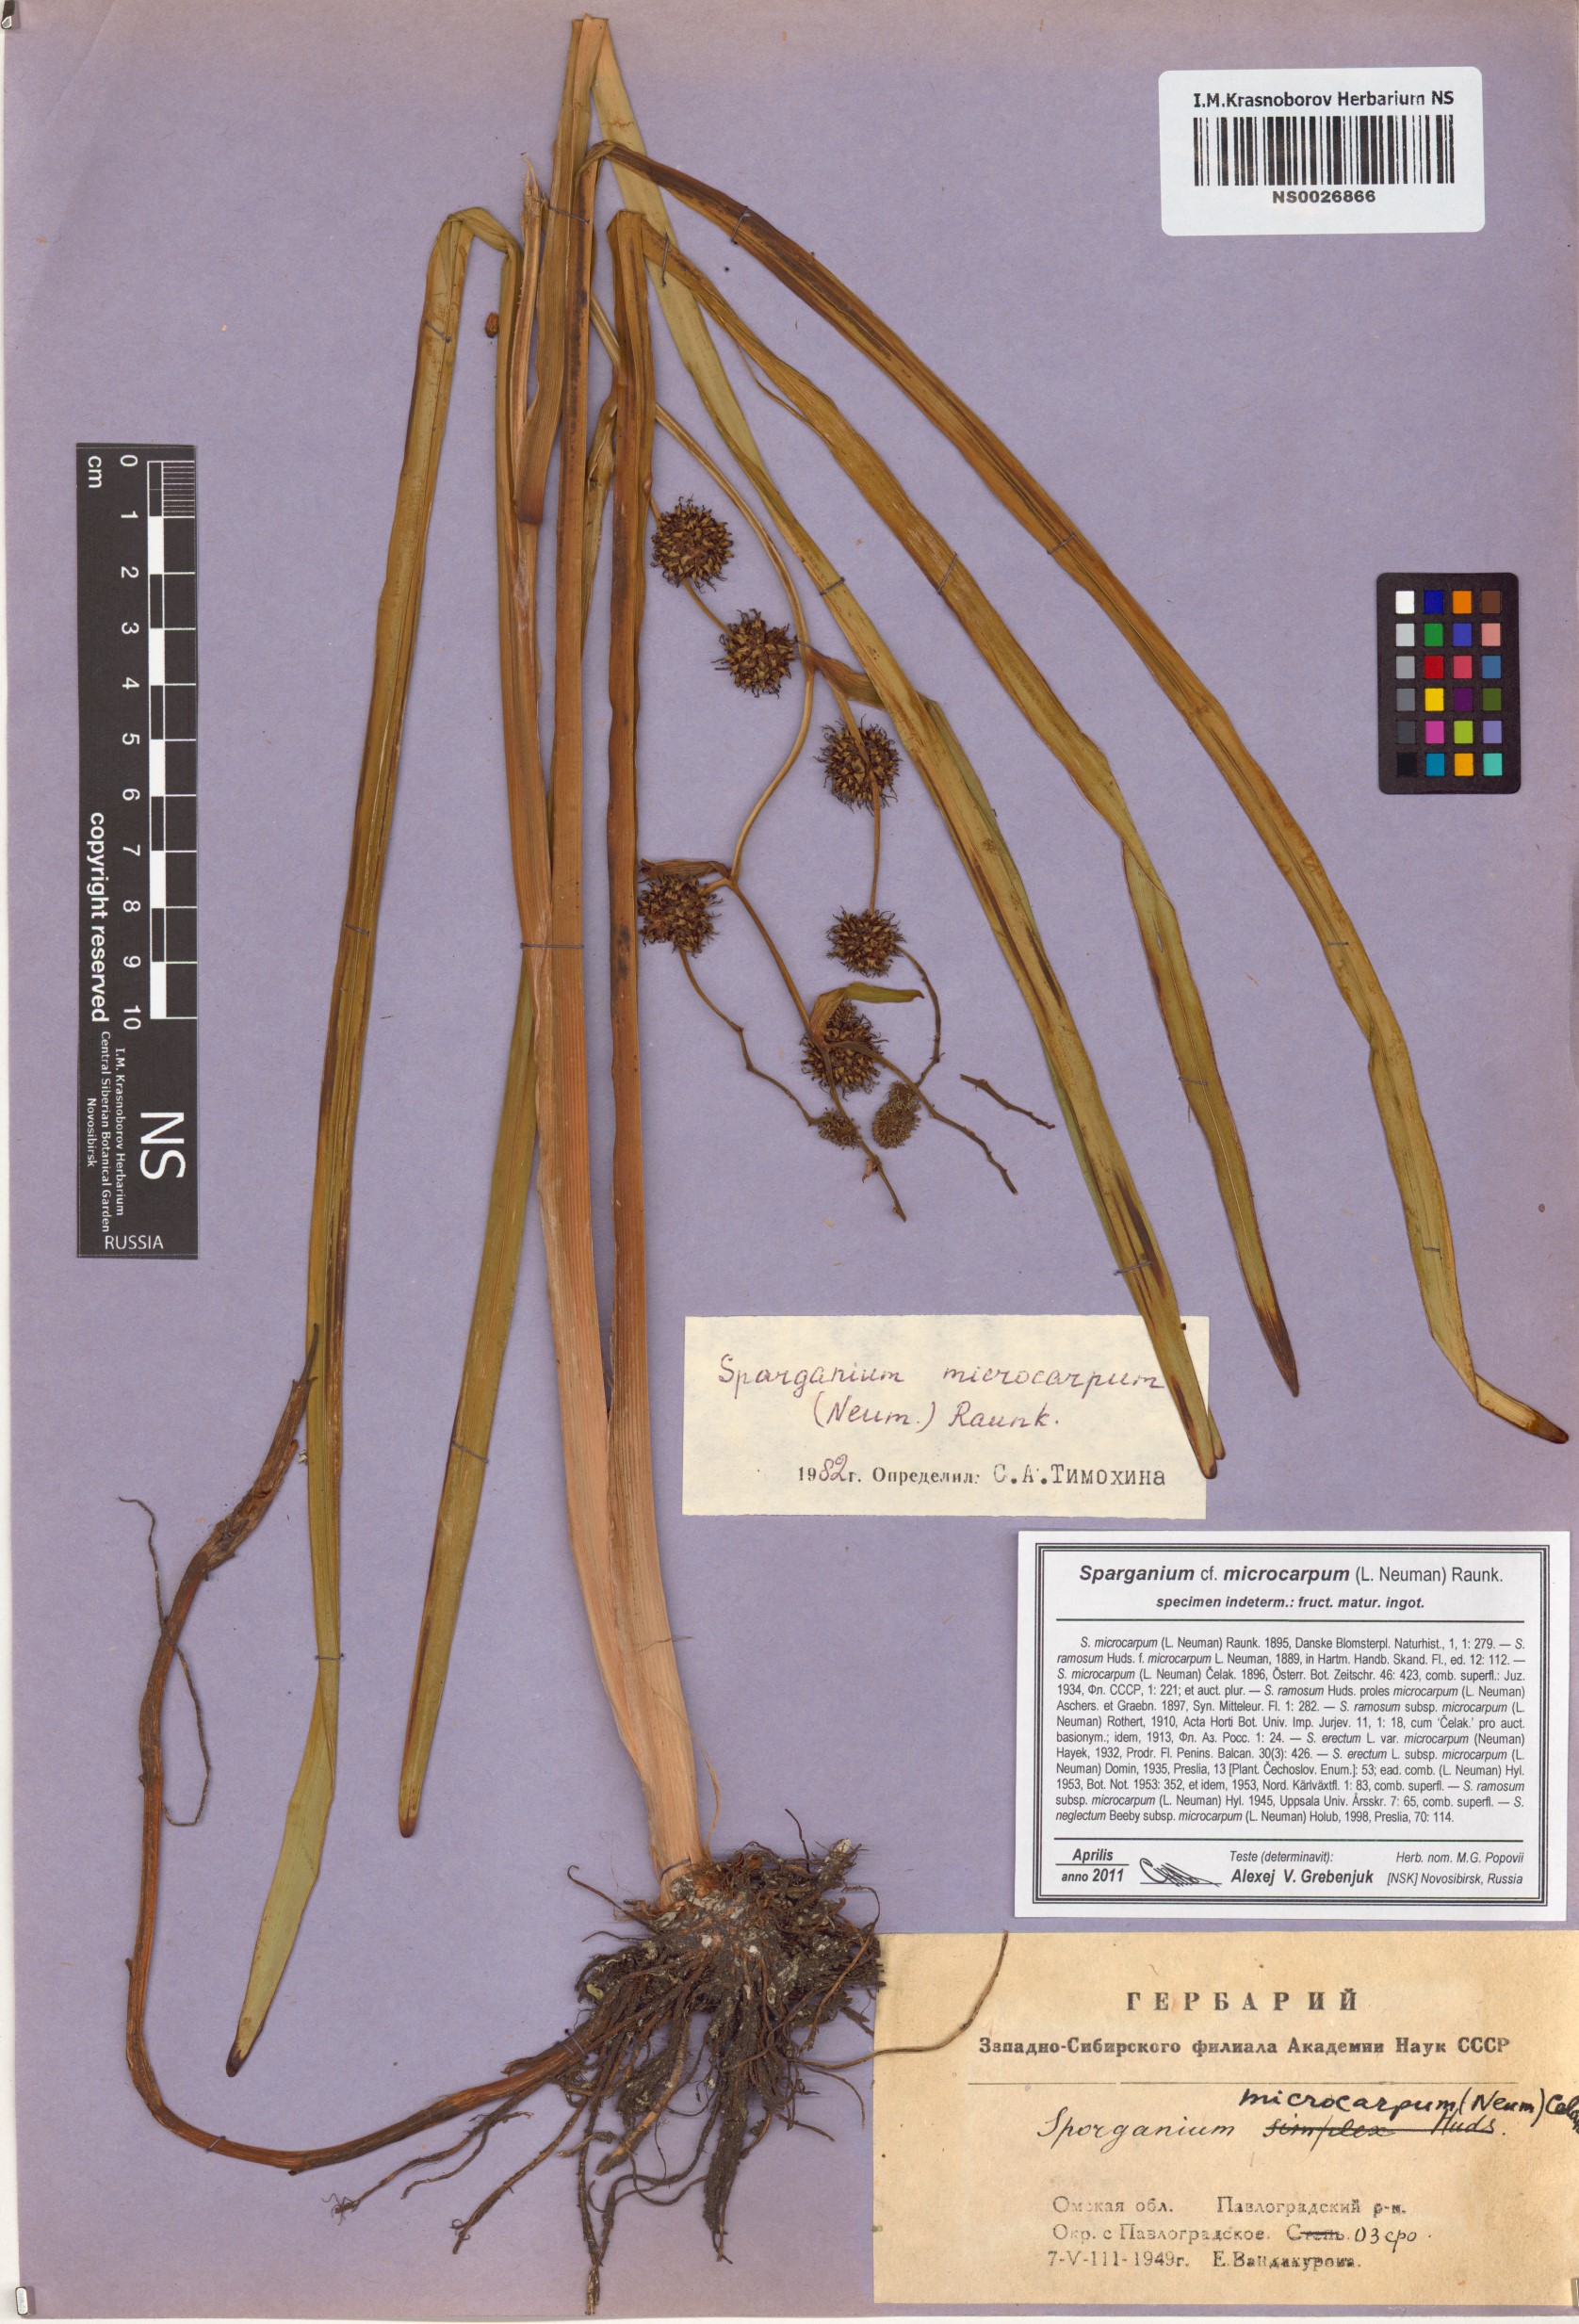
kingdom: Plantae
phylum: Tracheophyta
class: Liliopsida
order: Poales
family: Typhaceae
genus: Sparganium
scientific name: Sparganium erectum
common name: Branched bur-reed
